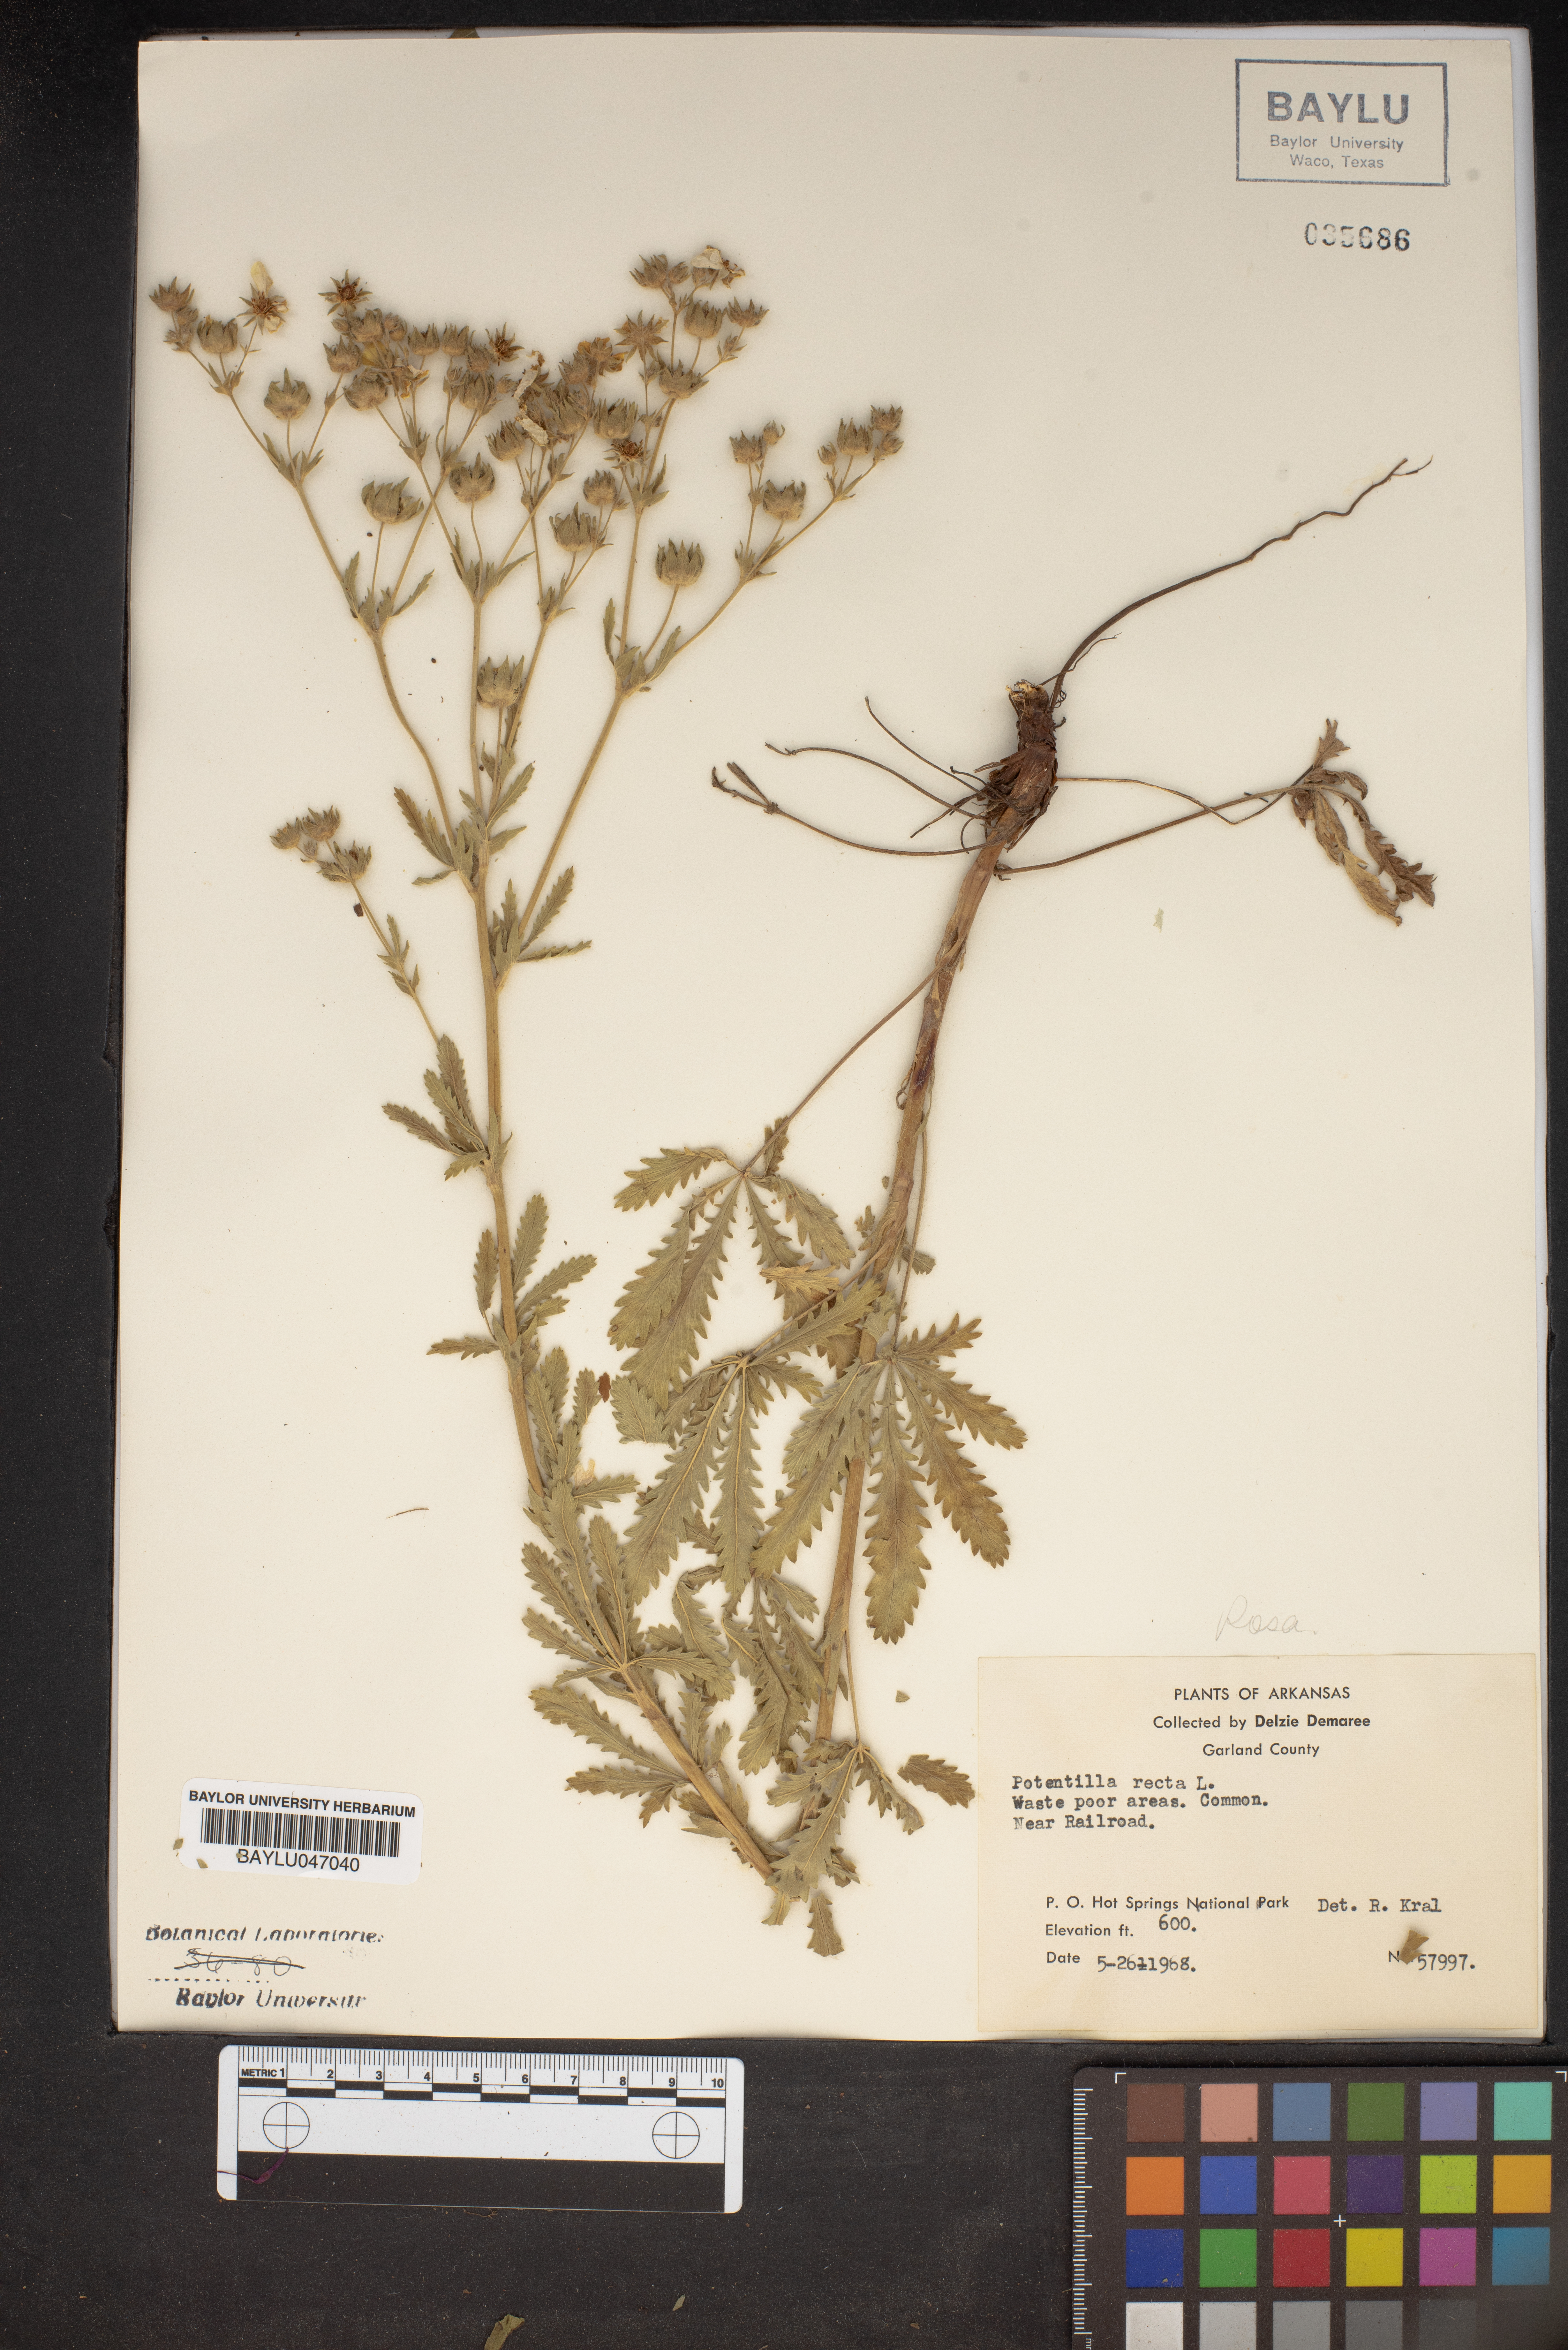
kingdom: Plantae
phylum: Tracheophyta
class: Magnoliopsida
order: Rosales
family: Rosaceae
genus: Potentilla
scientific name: Potentilla recta
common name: Sulphur cinquefoil
